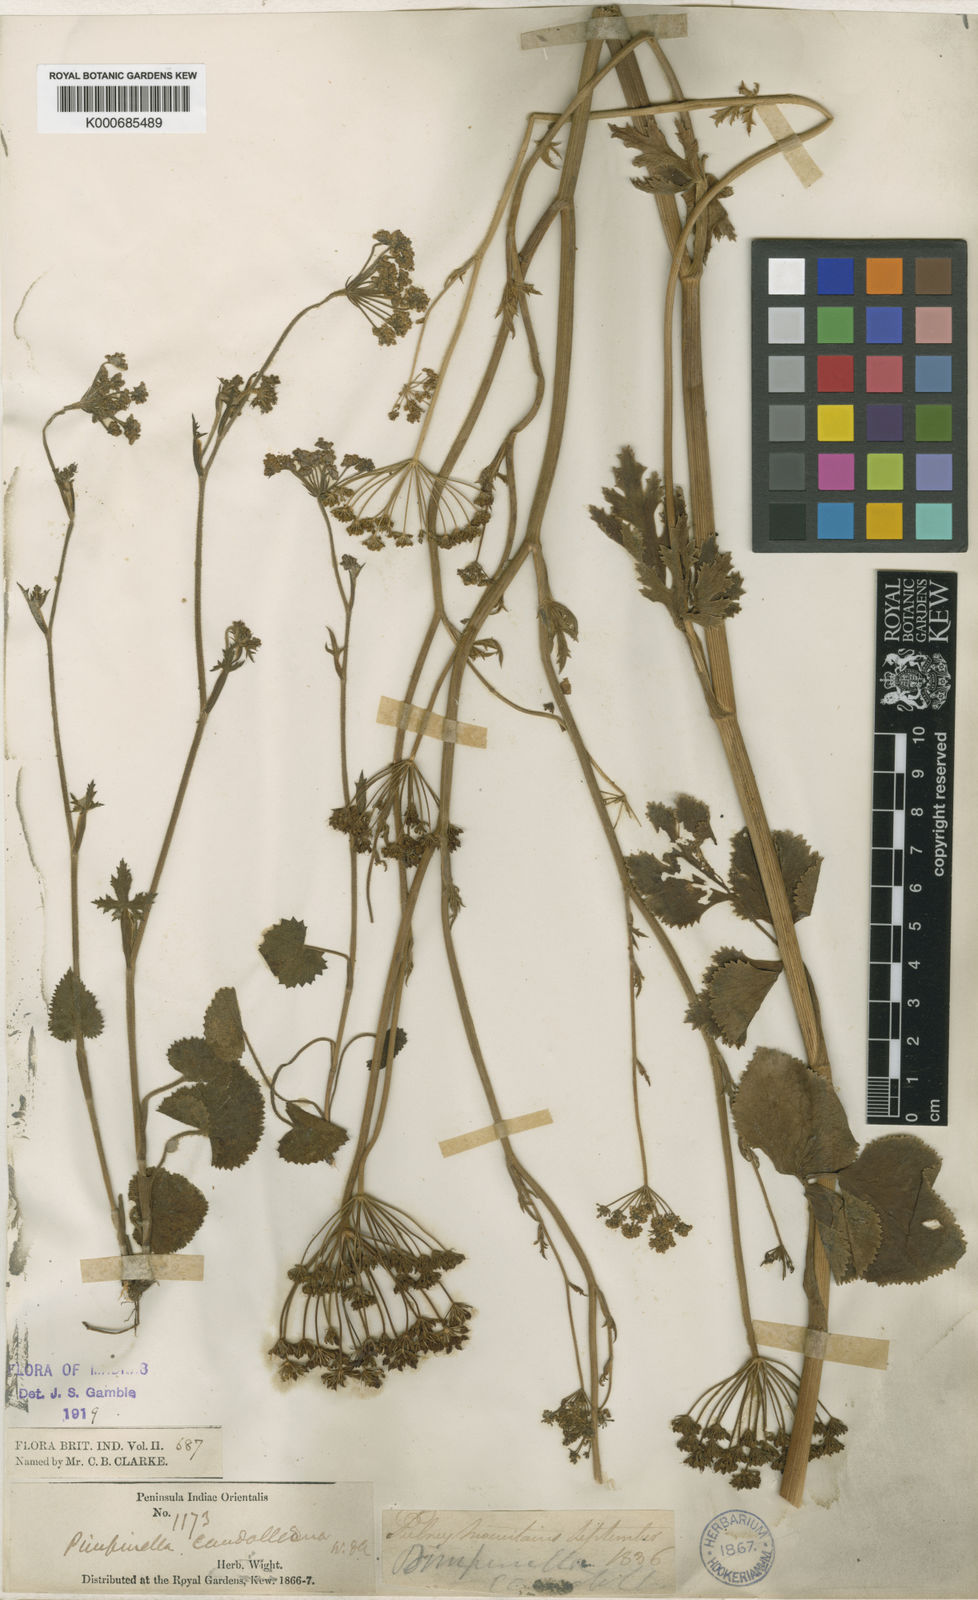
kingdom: Plantae
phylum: Tracheophyta
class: Magnoliopsida
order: Apiales
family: Apiaceae
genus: Pimpinella
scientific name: Pimpinella candolleana
